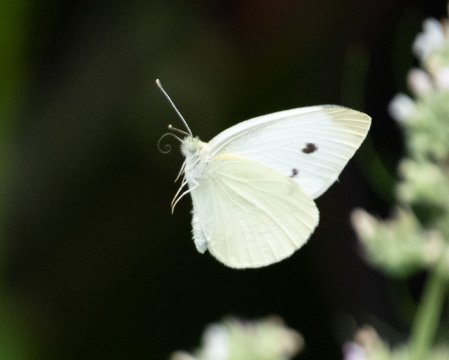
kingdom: Animalia
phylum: Arthropoda
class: Insecta
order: Lepidoptera
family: Pieridae
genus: Pieris
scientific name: Pieris rapae
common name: Cabbage White
